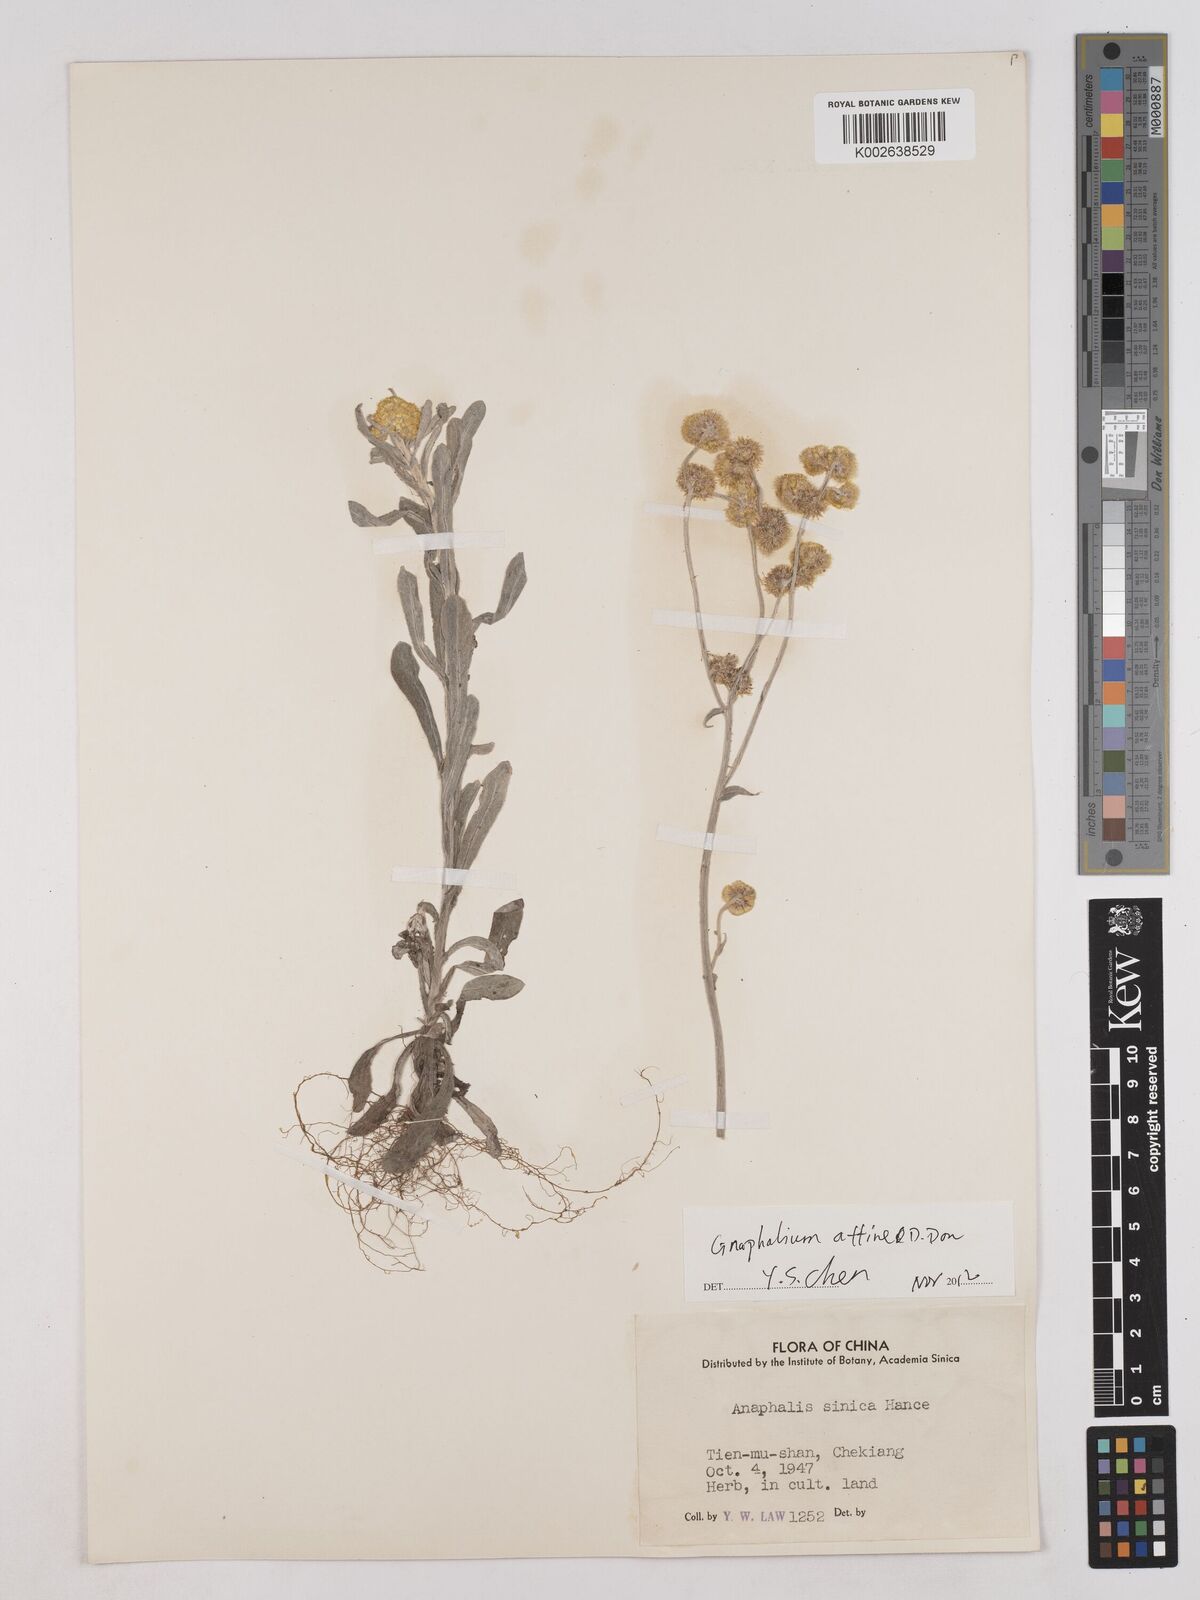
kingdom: Plantae
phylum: Tracheophyta
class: Magnoliopsida
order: Asterales
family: Asteraceae
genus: Anaphalis
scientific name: Anaphalis
